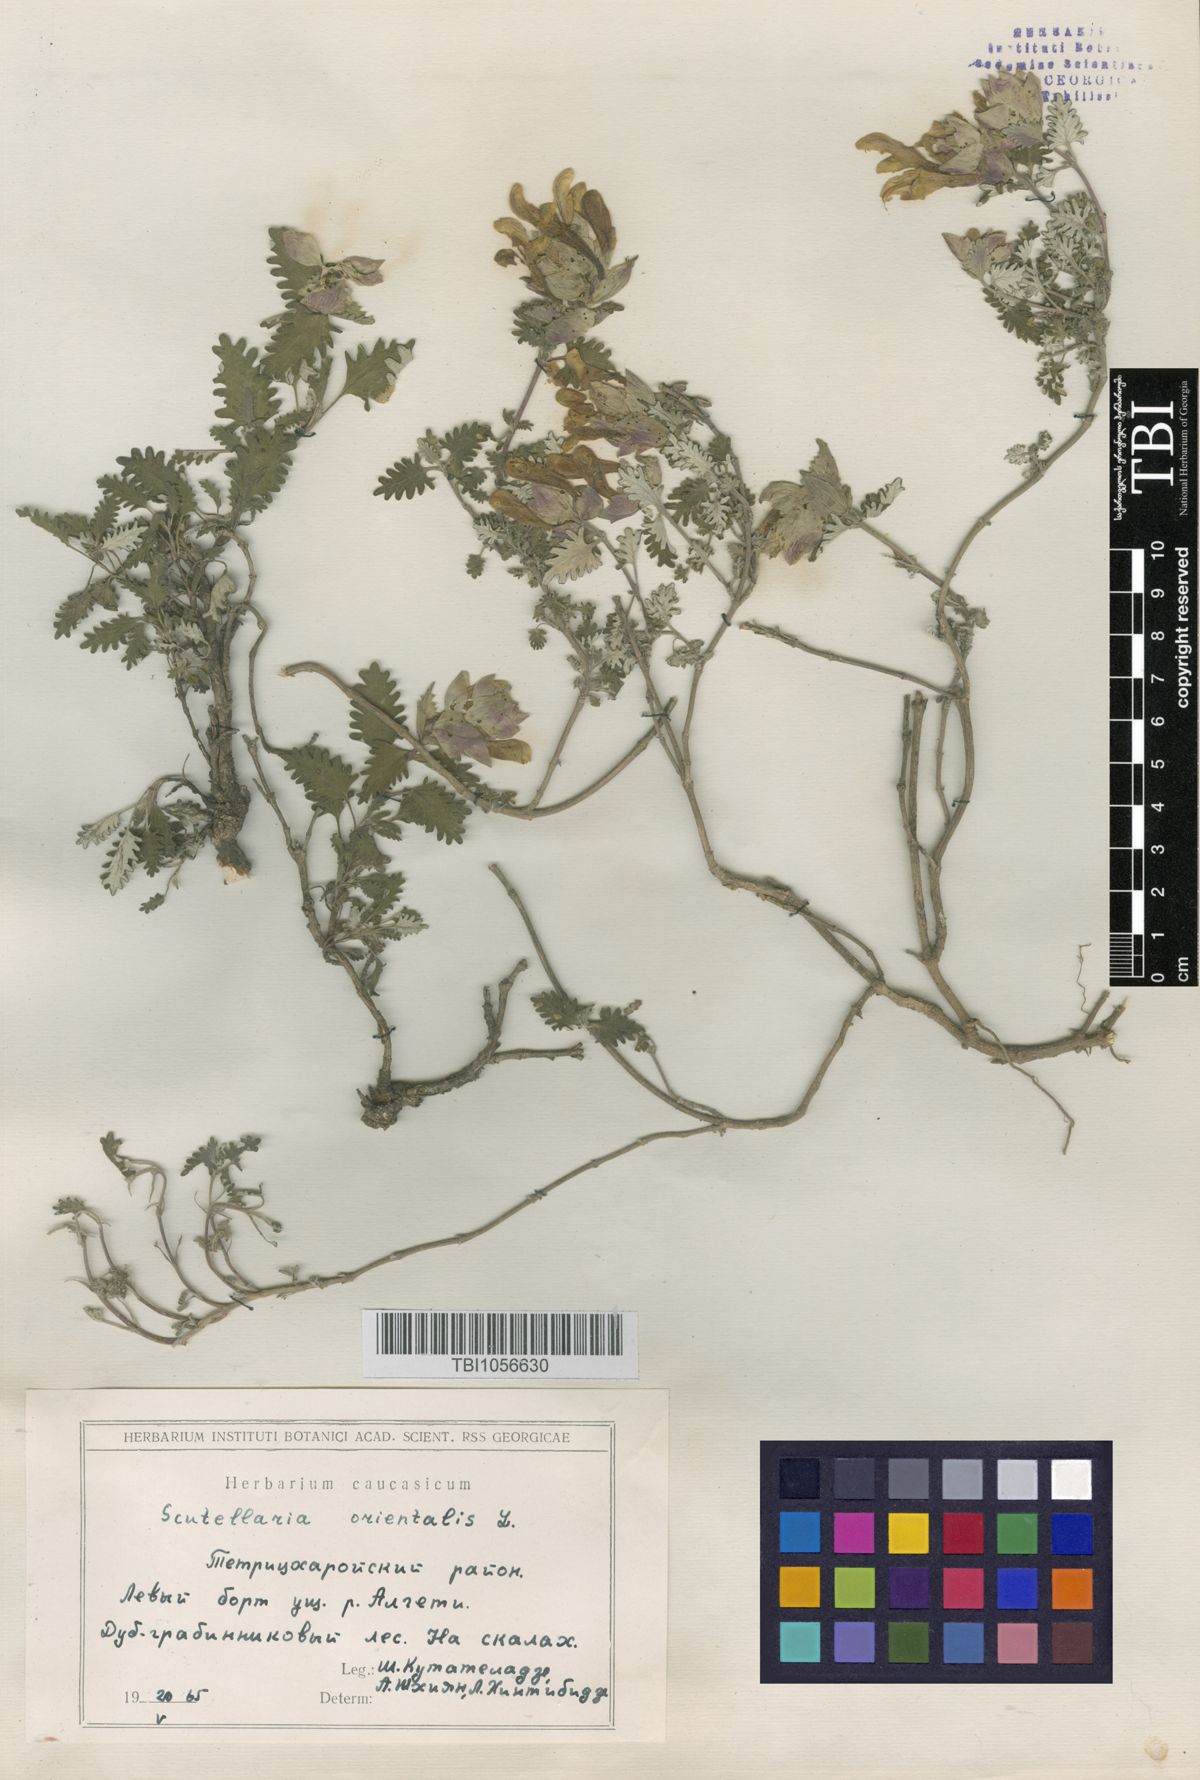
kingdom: Plantae
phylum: Tracheophyta
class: Magnoliopsida
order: Lamiales
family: Lamiaceae
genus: Scutellaria
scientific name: Scutellaria orientalis
